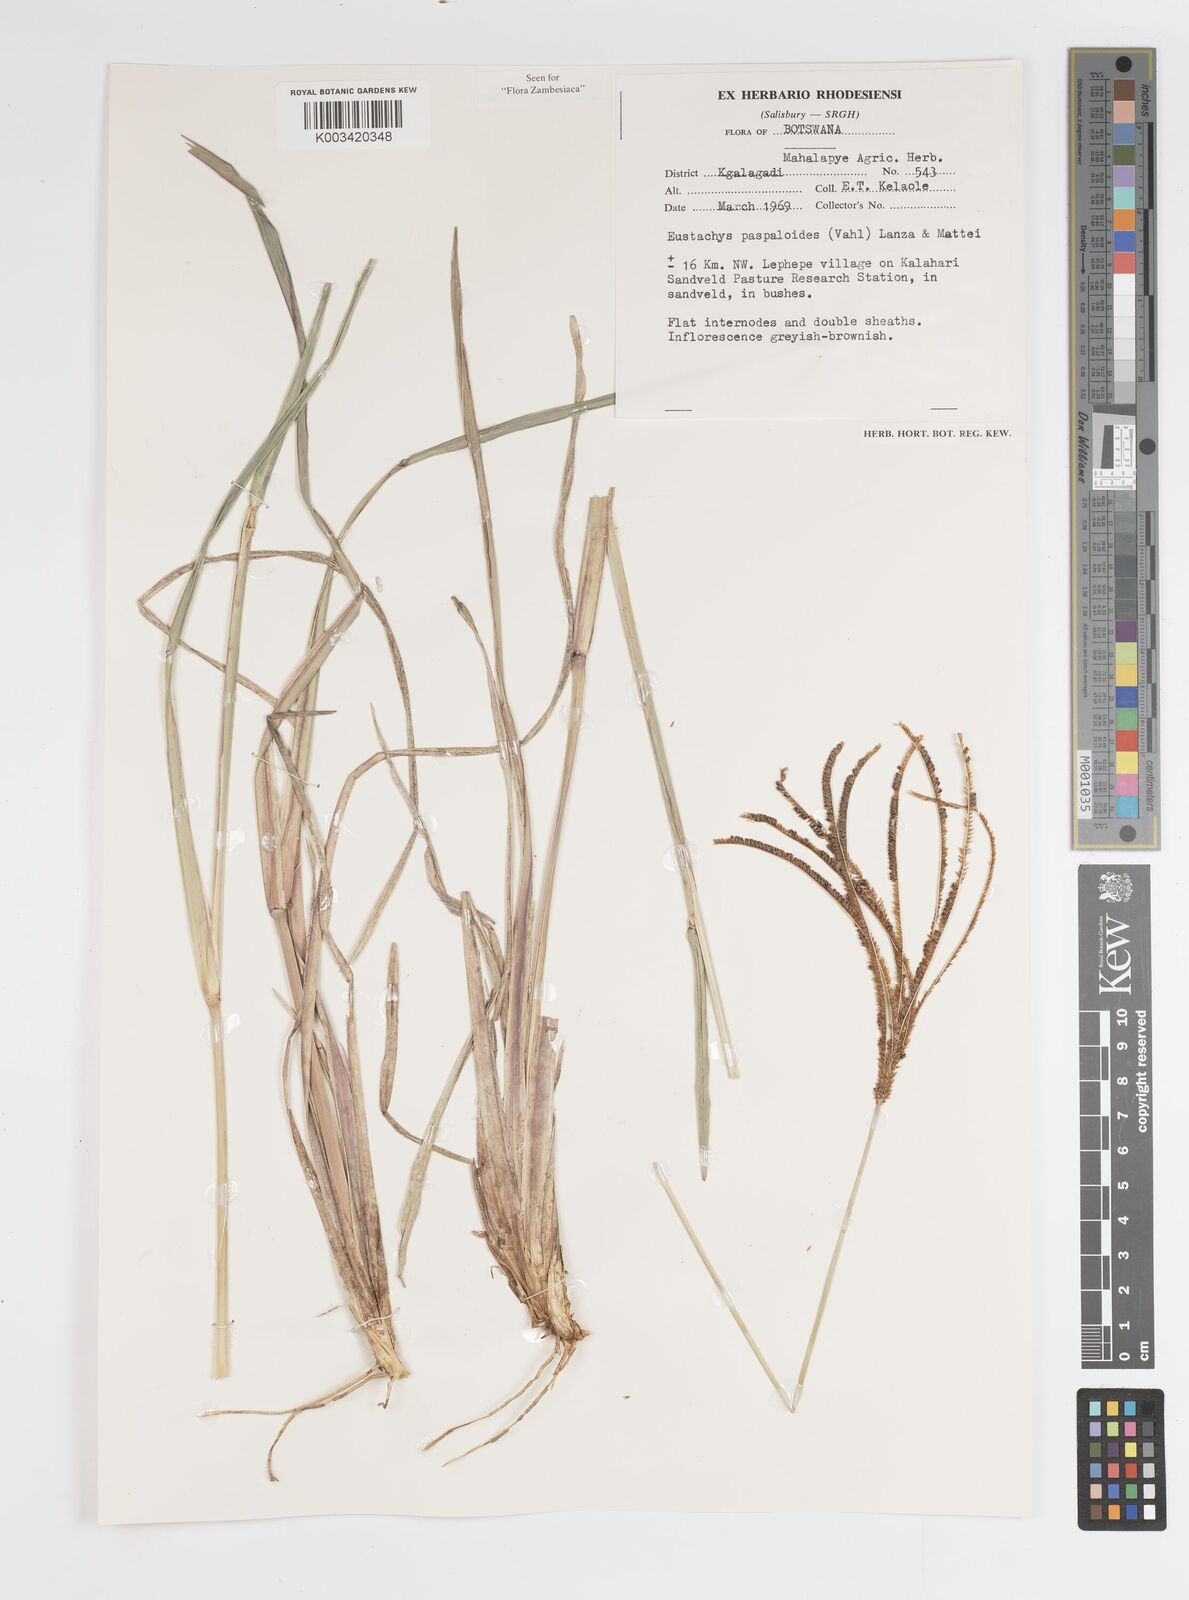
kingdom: Plantae
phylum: Tracheophyta
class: Liliopsida
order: Poales
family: Poaceae
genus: Eustachys
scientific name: Eustachys paspaloides
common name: Caribbean fingergrass
